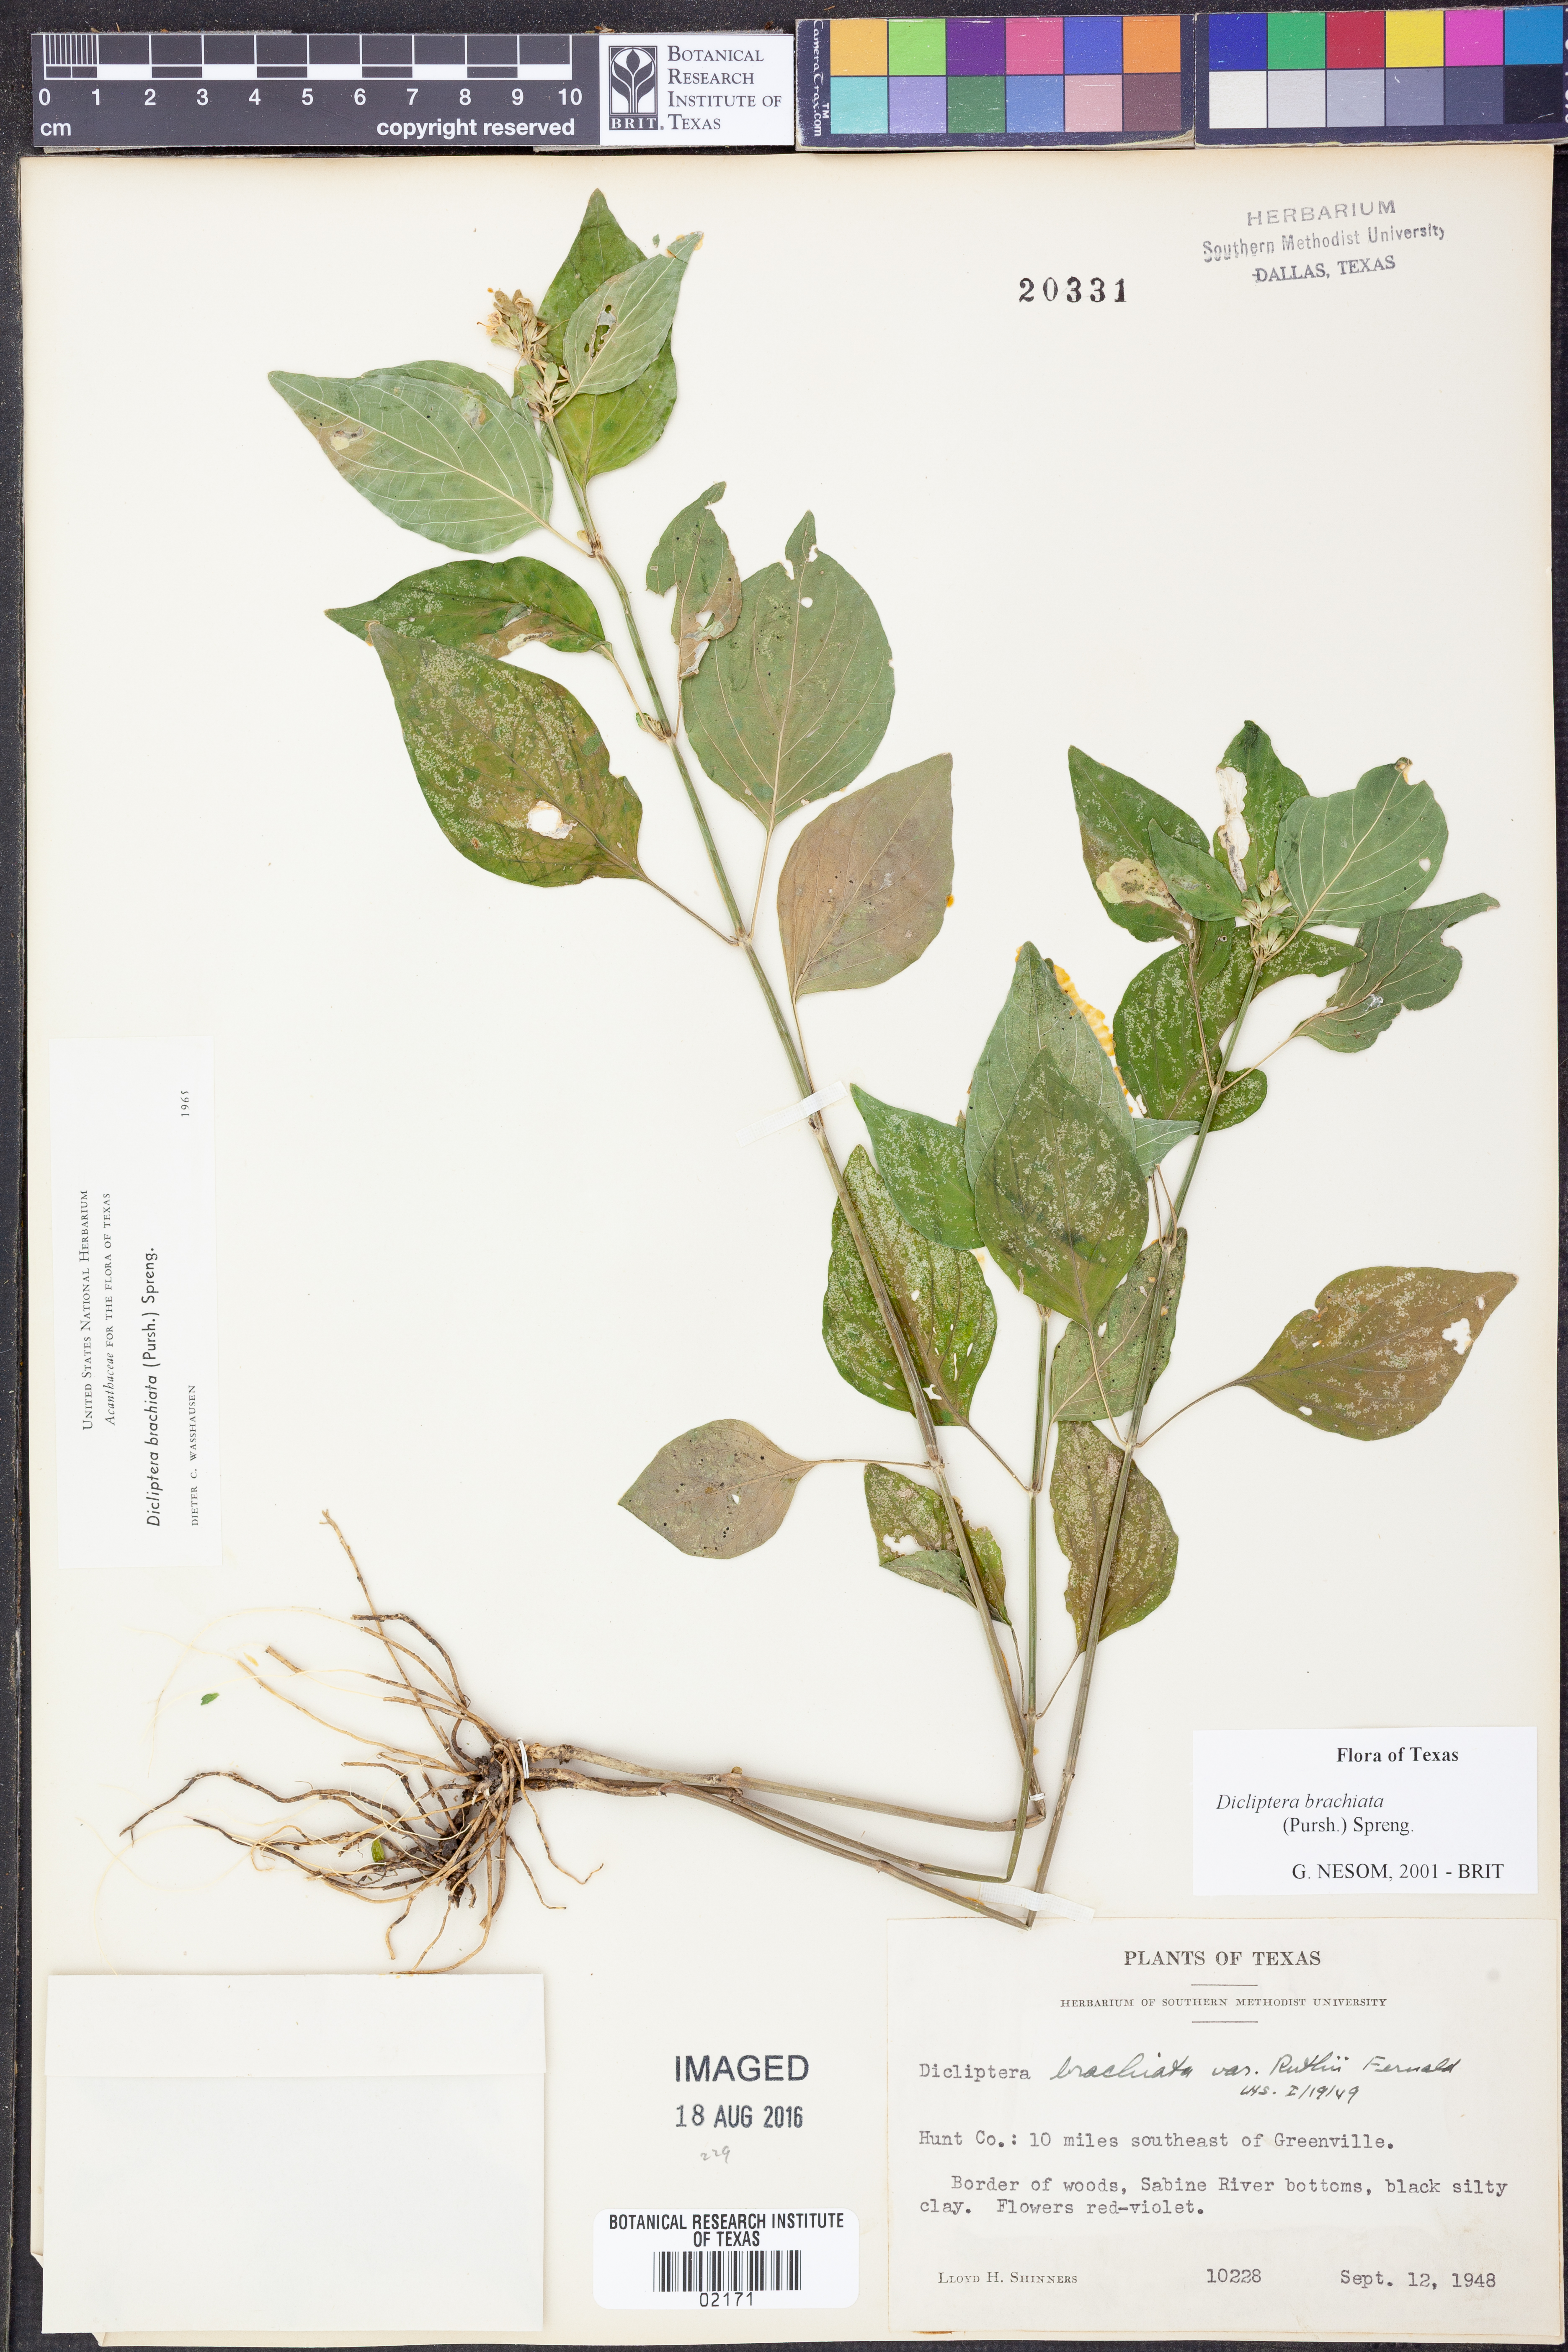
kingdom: Plantae
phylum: Tracheophyta
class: Magnoliopsida
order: Lamiales
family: Acanthaceae
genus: Dicliptera
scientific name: Dicliptera brachiata
